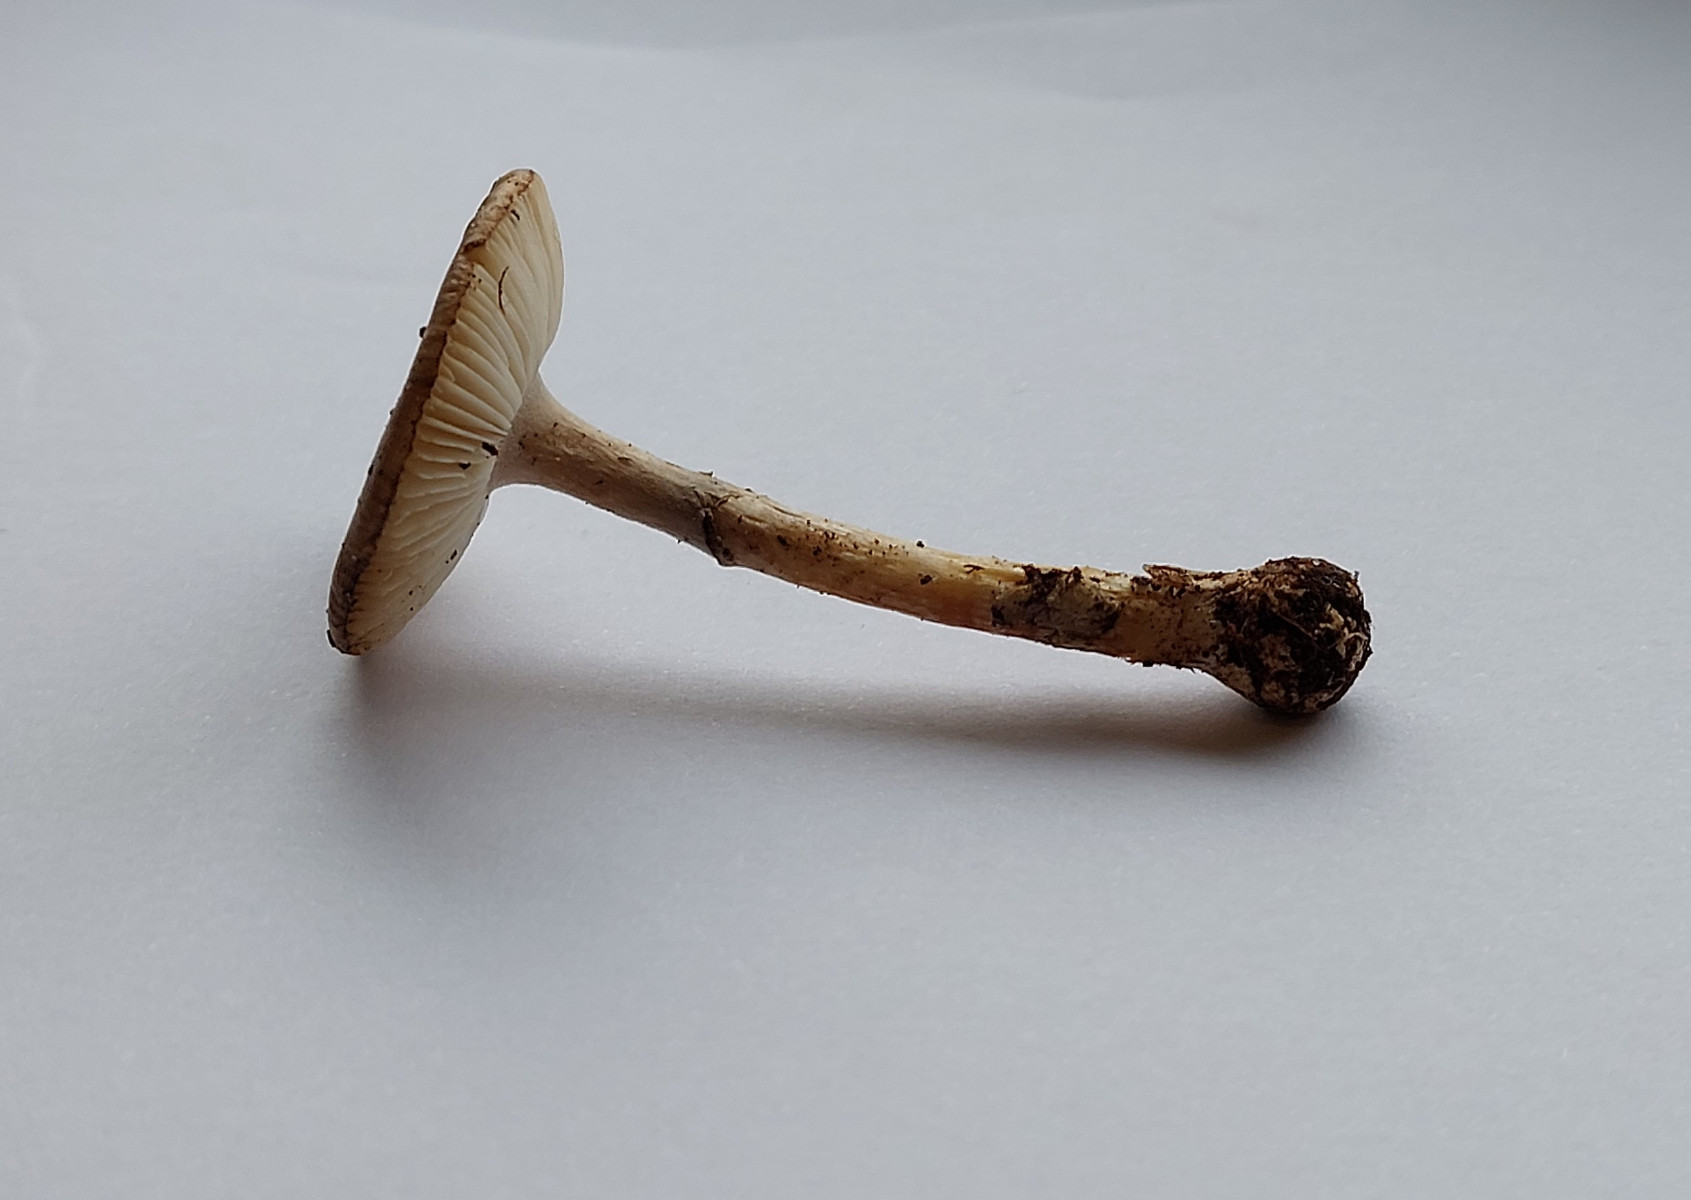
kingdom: Fungi
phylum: Basidiomycota
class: Agaricomycetes
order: Agaricales
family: Amanitaceae
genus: Amanita
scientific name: Amanita porphyria
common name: porfyr-fluesvamp
